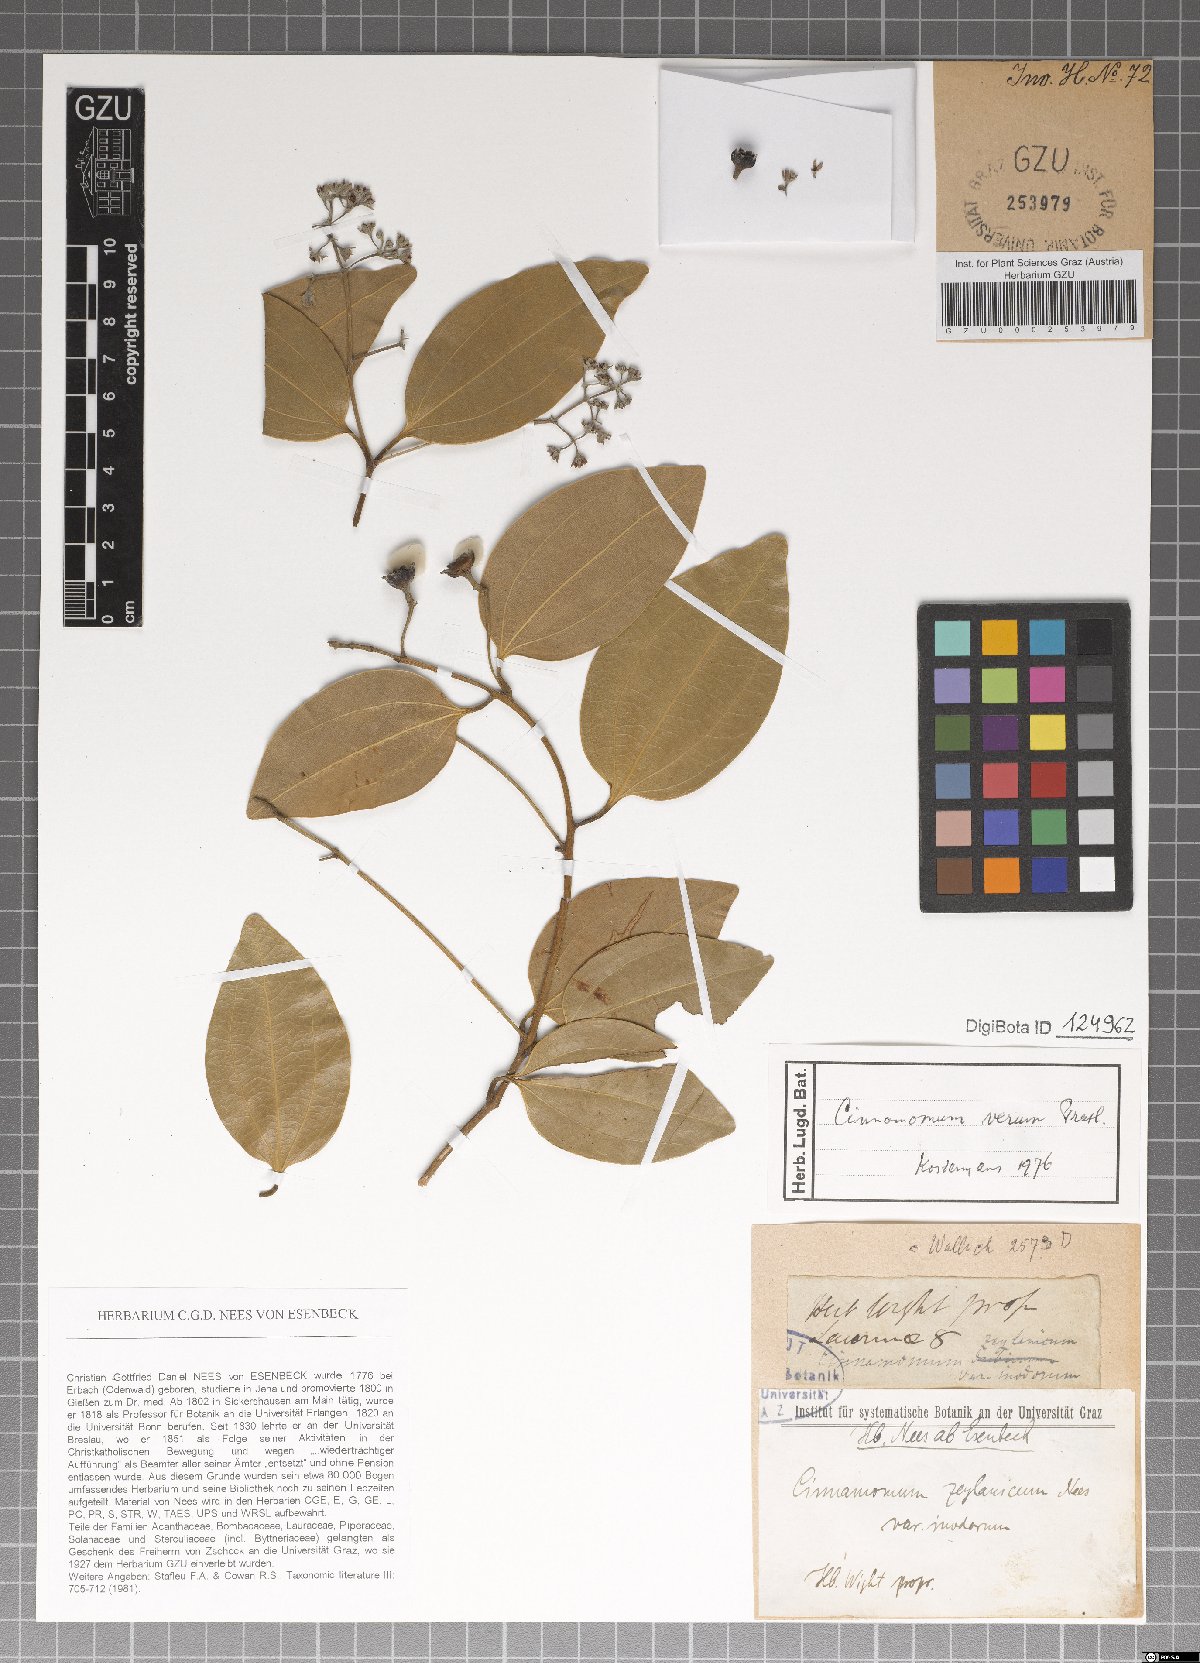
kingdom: Plantae
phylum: Tracheophyta
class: Magnoliopsida
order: Laurales
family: Lauraceae
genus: Cinnamomum
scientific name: Cinnamomum verum
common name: Cinnamon
